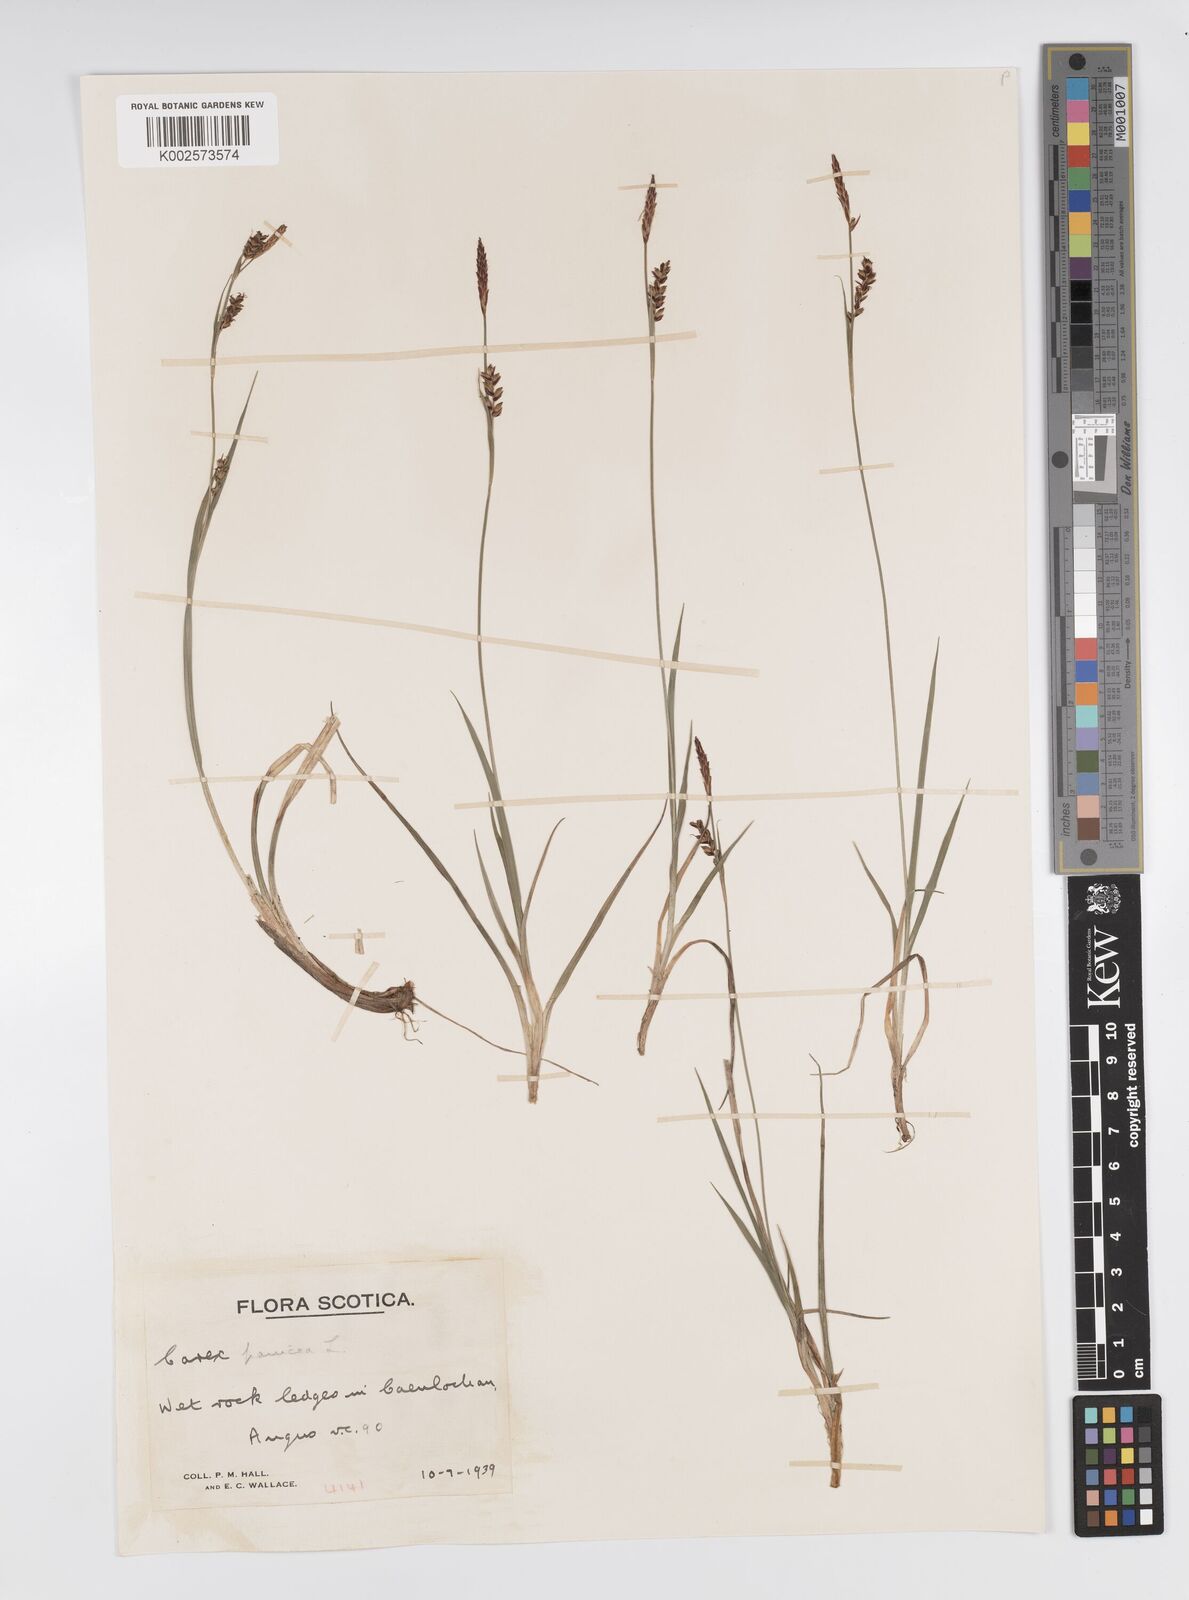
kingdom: Plantae
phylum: Tracheophyta
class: Liliopsida
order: Poales
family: Cyperaceae
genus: Carex
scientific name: Carex panicea
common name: Carnation sedge
